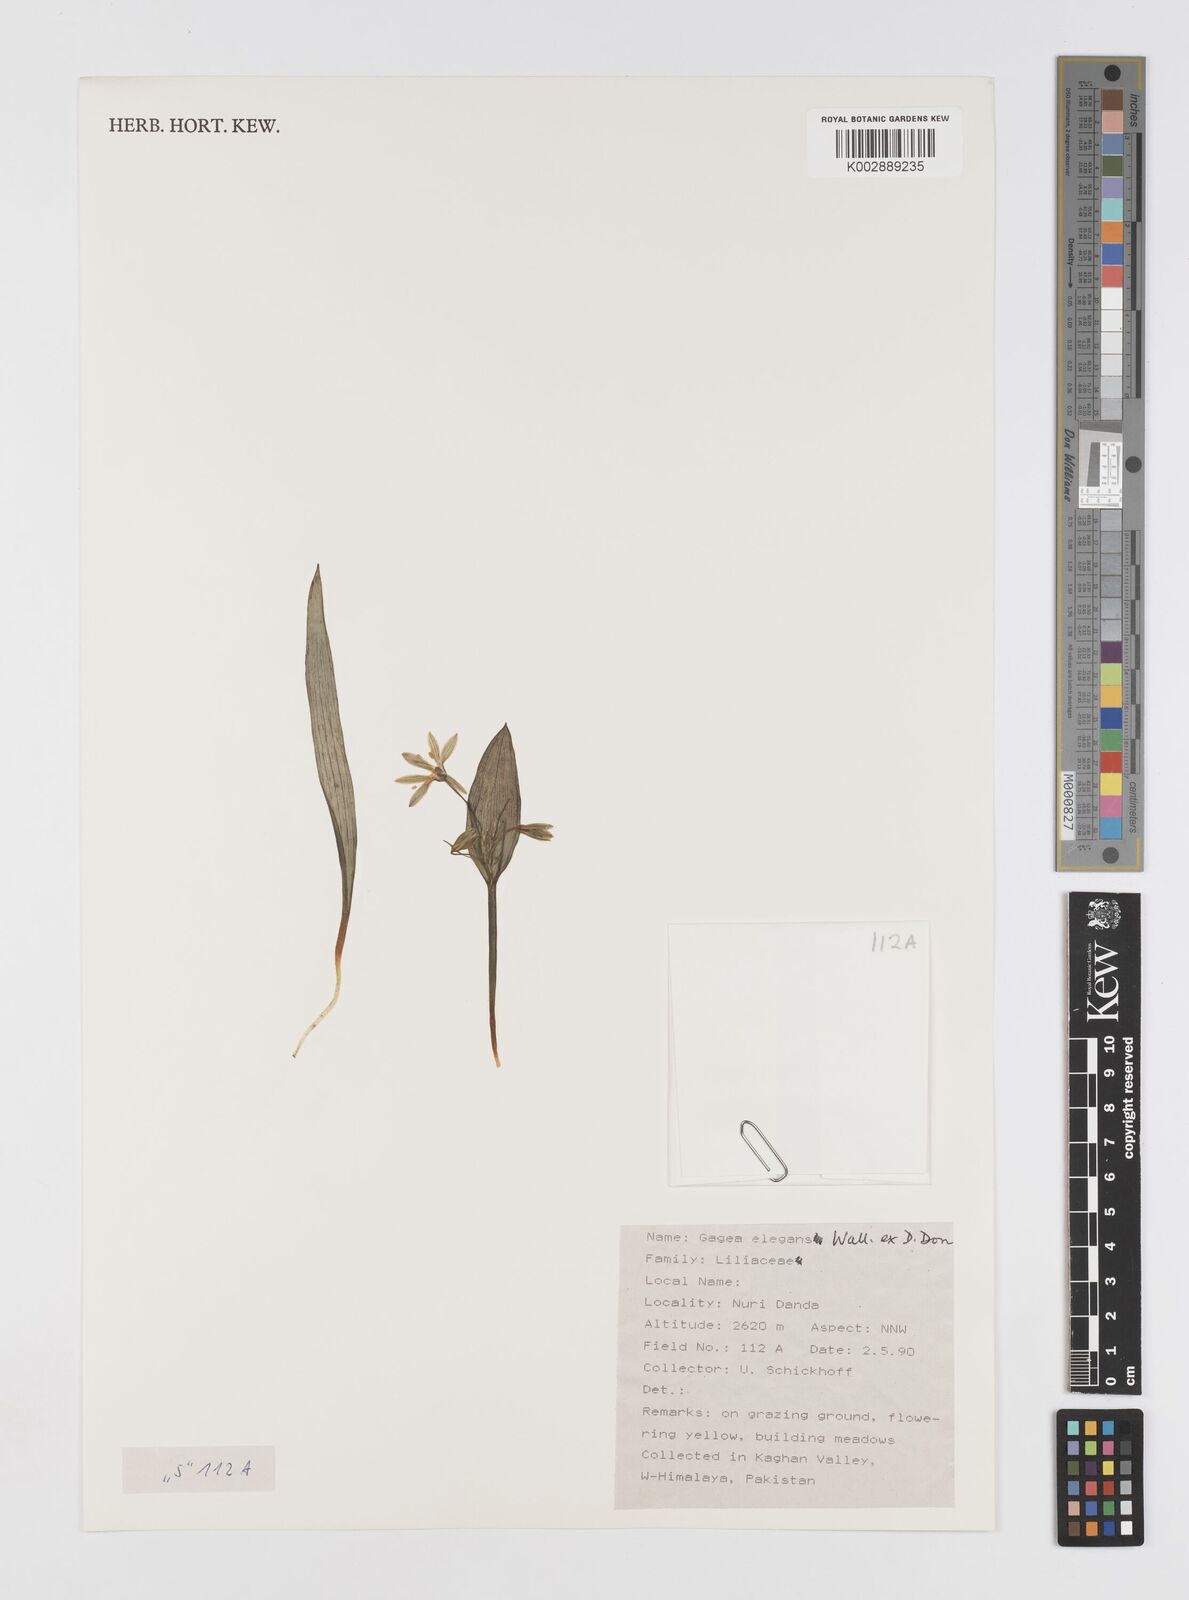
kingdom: Plantae
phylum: Tracheophyta
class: Liliopsida
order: Liliales
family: Liliaceae
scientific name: Liliaceae
